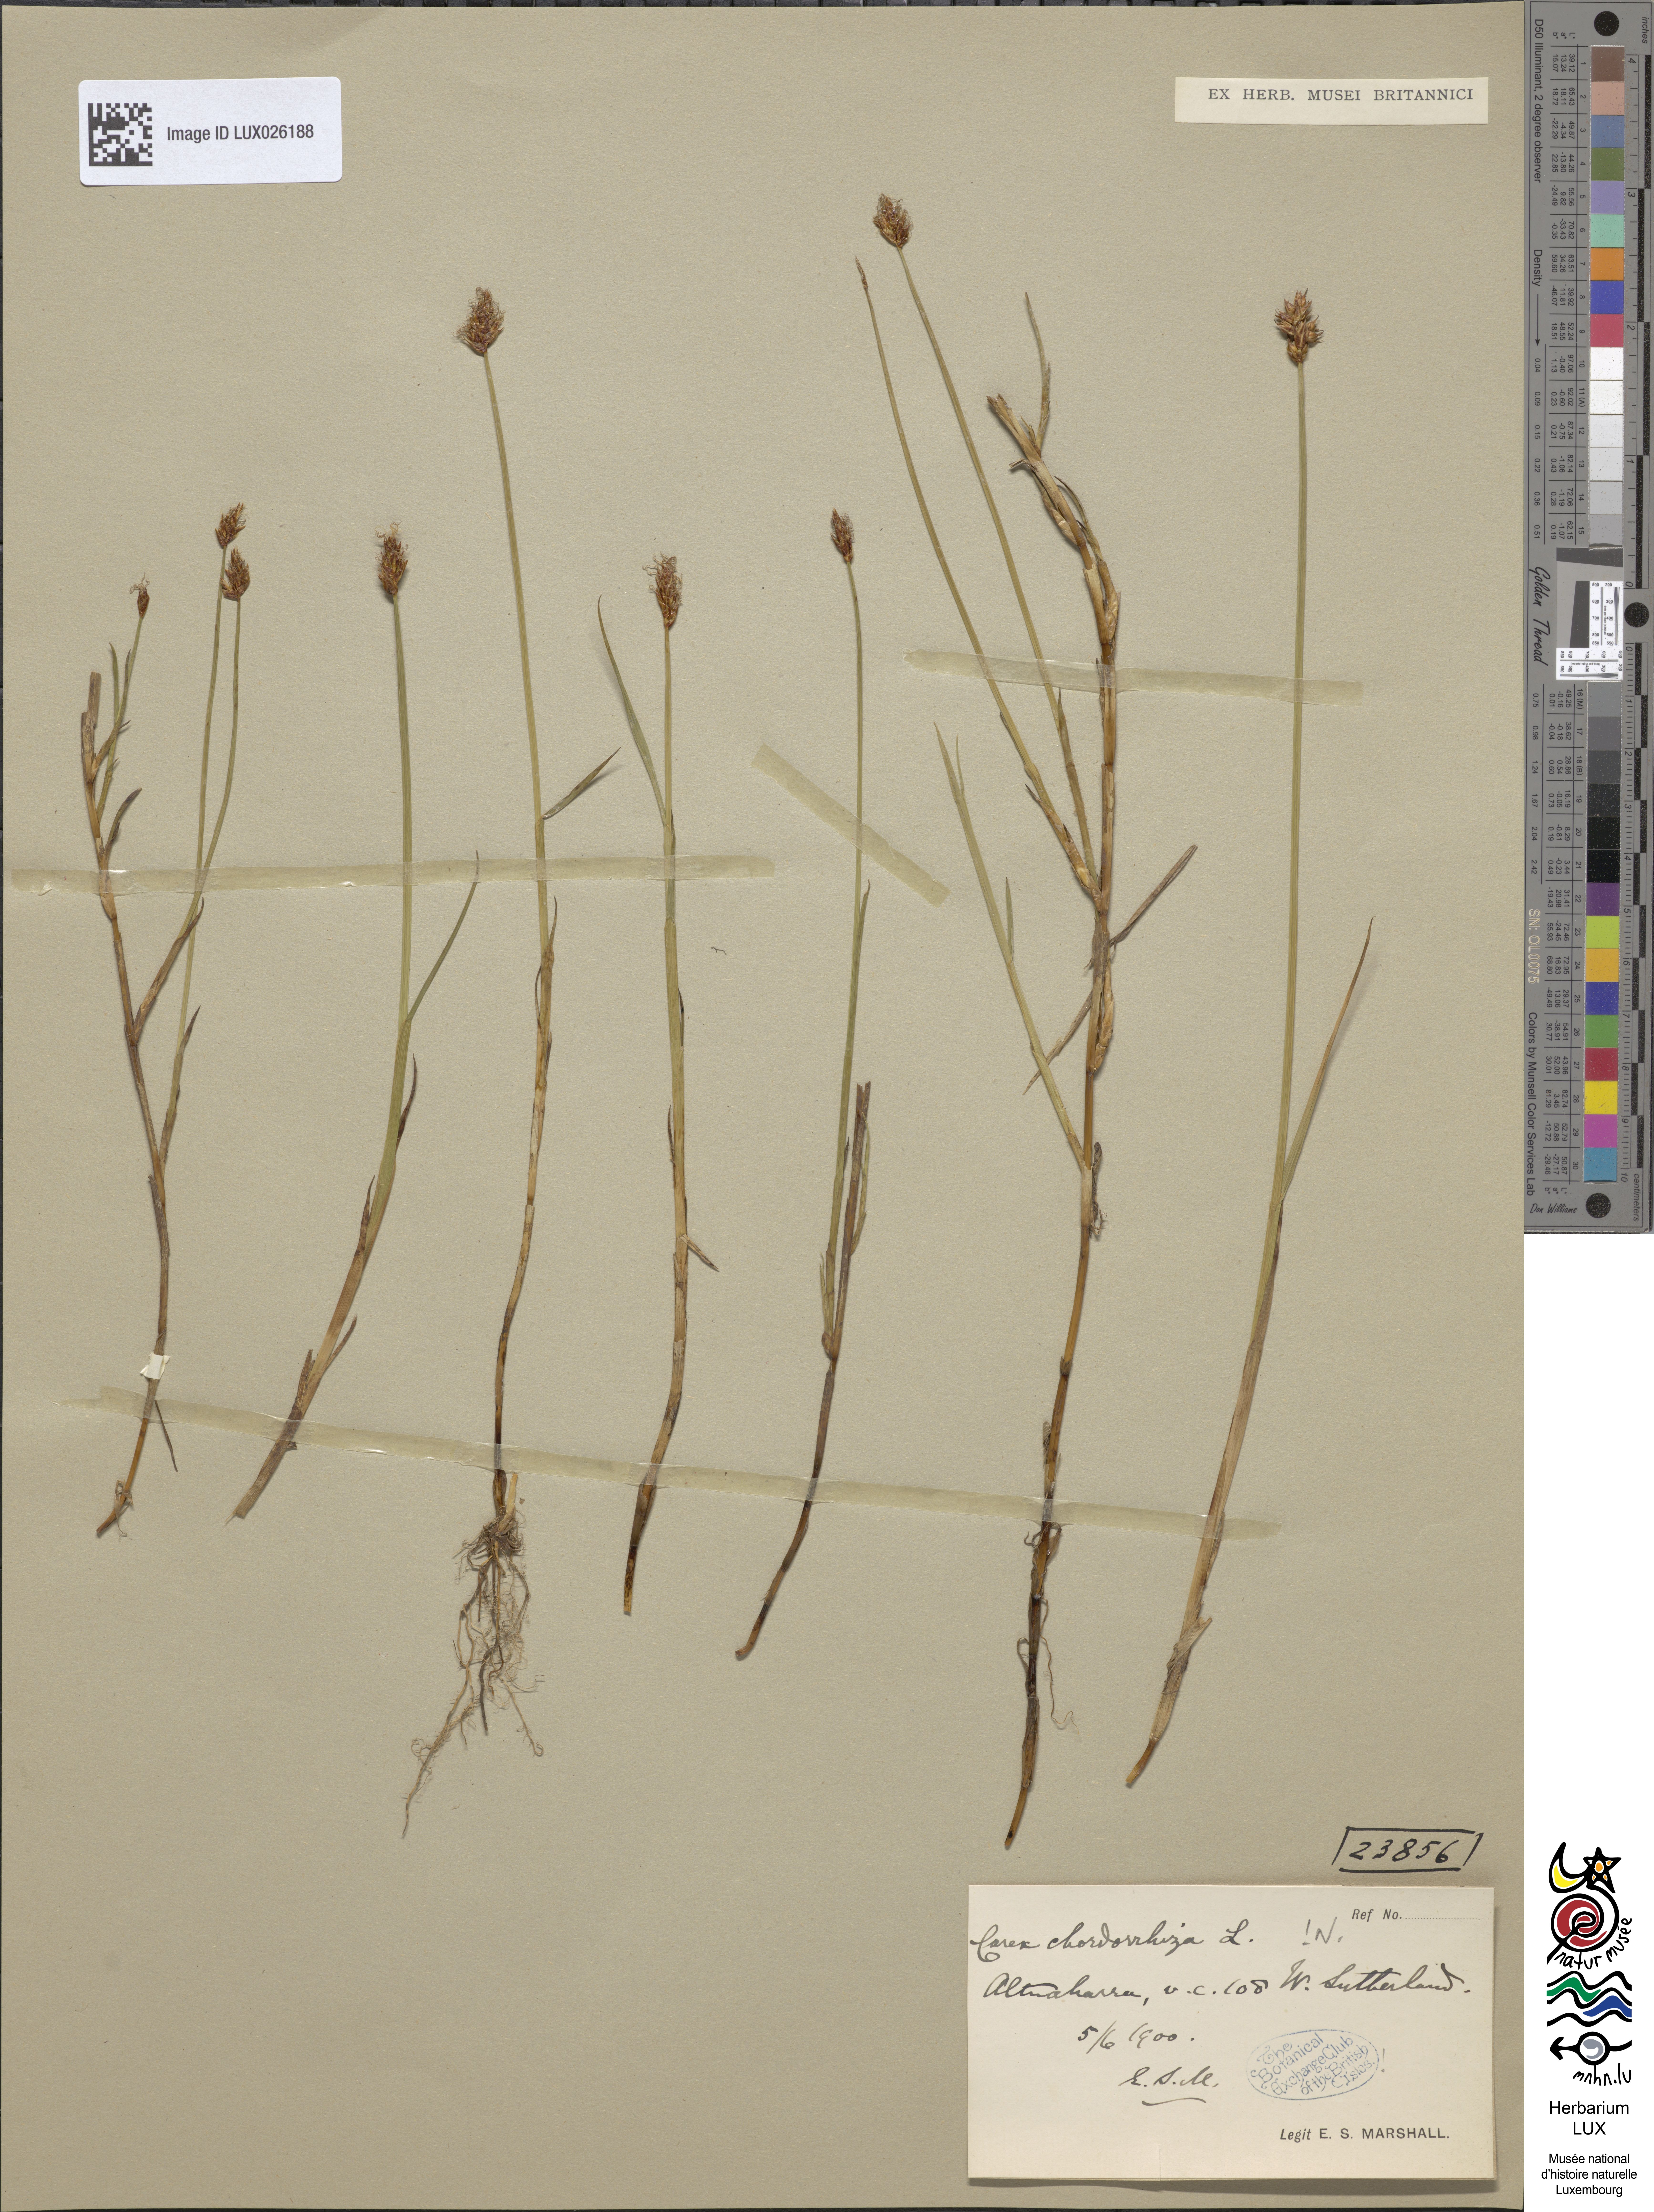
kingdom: Plantae
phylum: Tracheophyta
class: Liliopsida
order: Poales
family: Cyperaceae
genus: Carex
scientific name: Carex chordorrhiza
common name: String sedge
